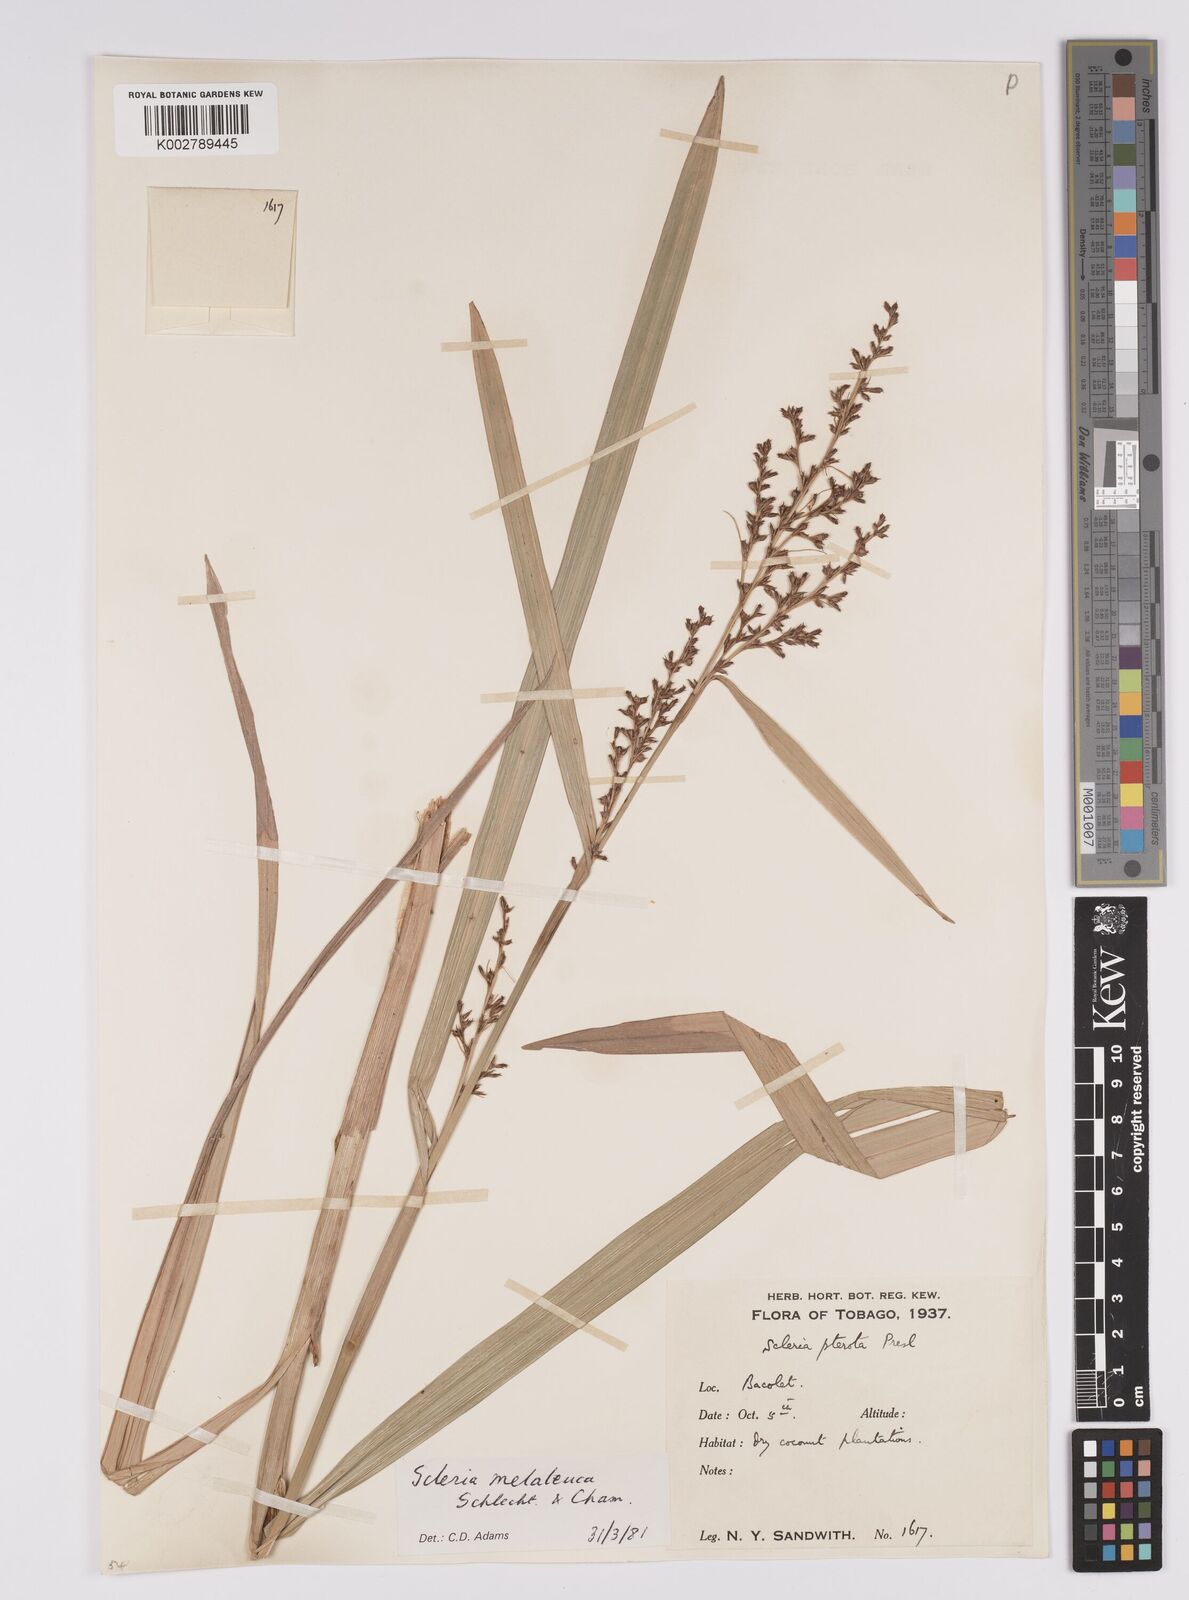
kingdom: Plantae
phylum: Tracheophyta
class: Liliopsida
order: Poales
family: Cyperaceae
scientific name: Cyperaceae
